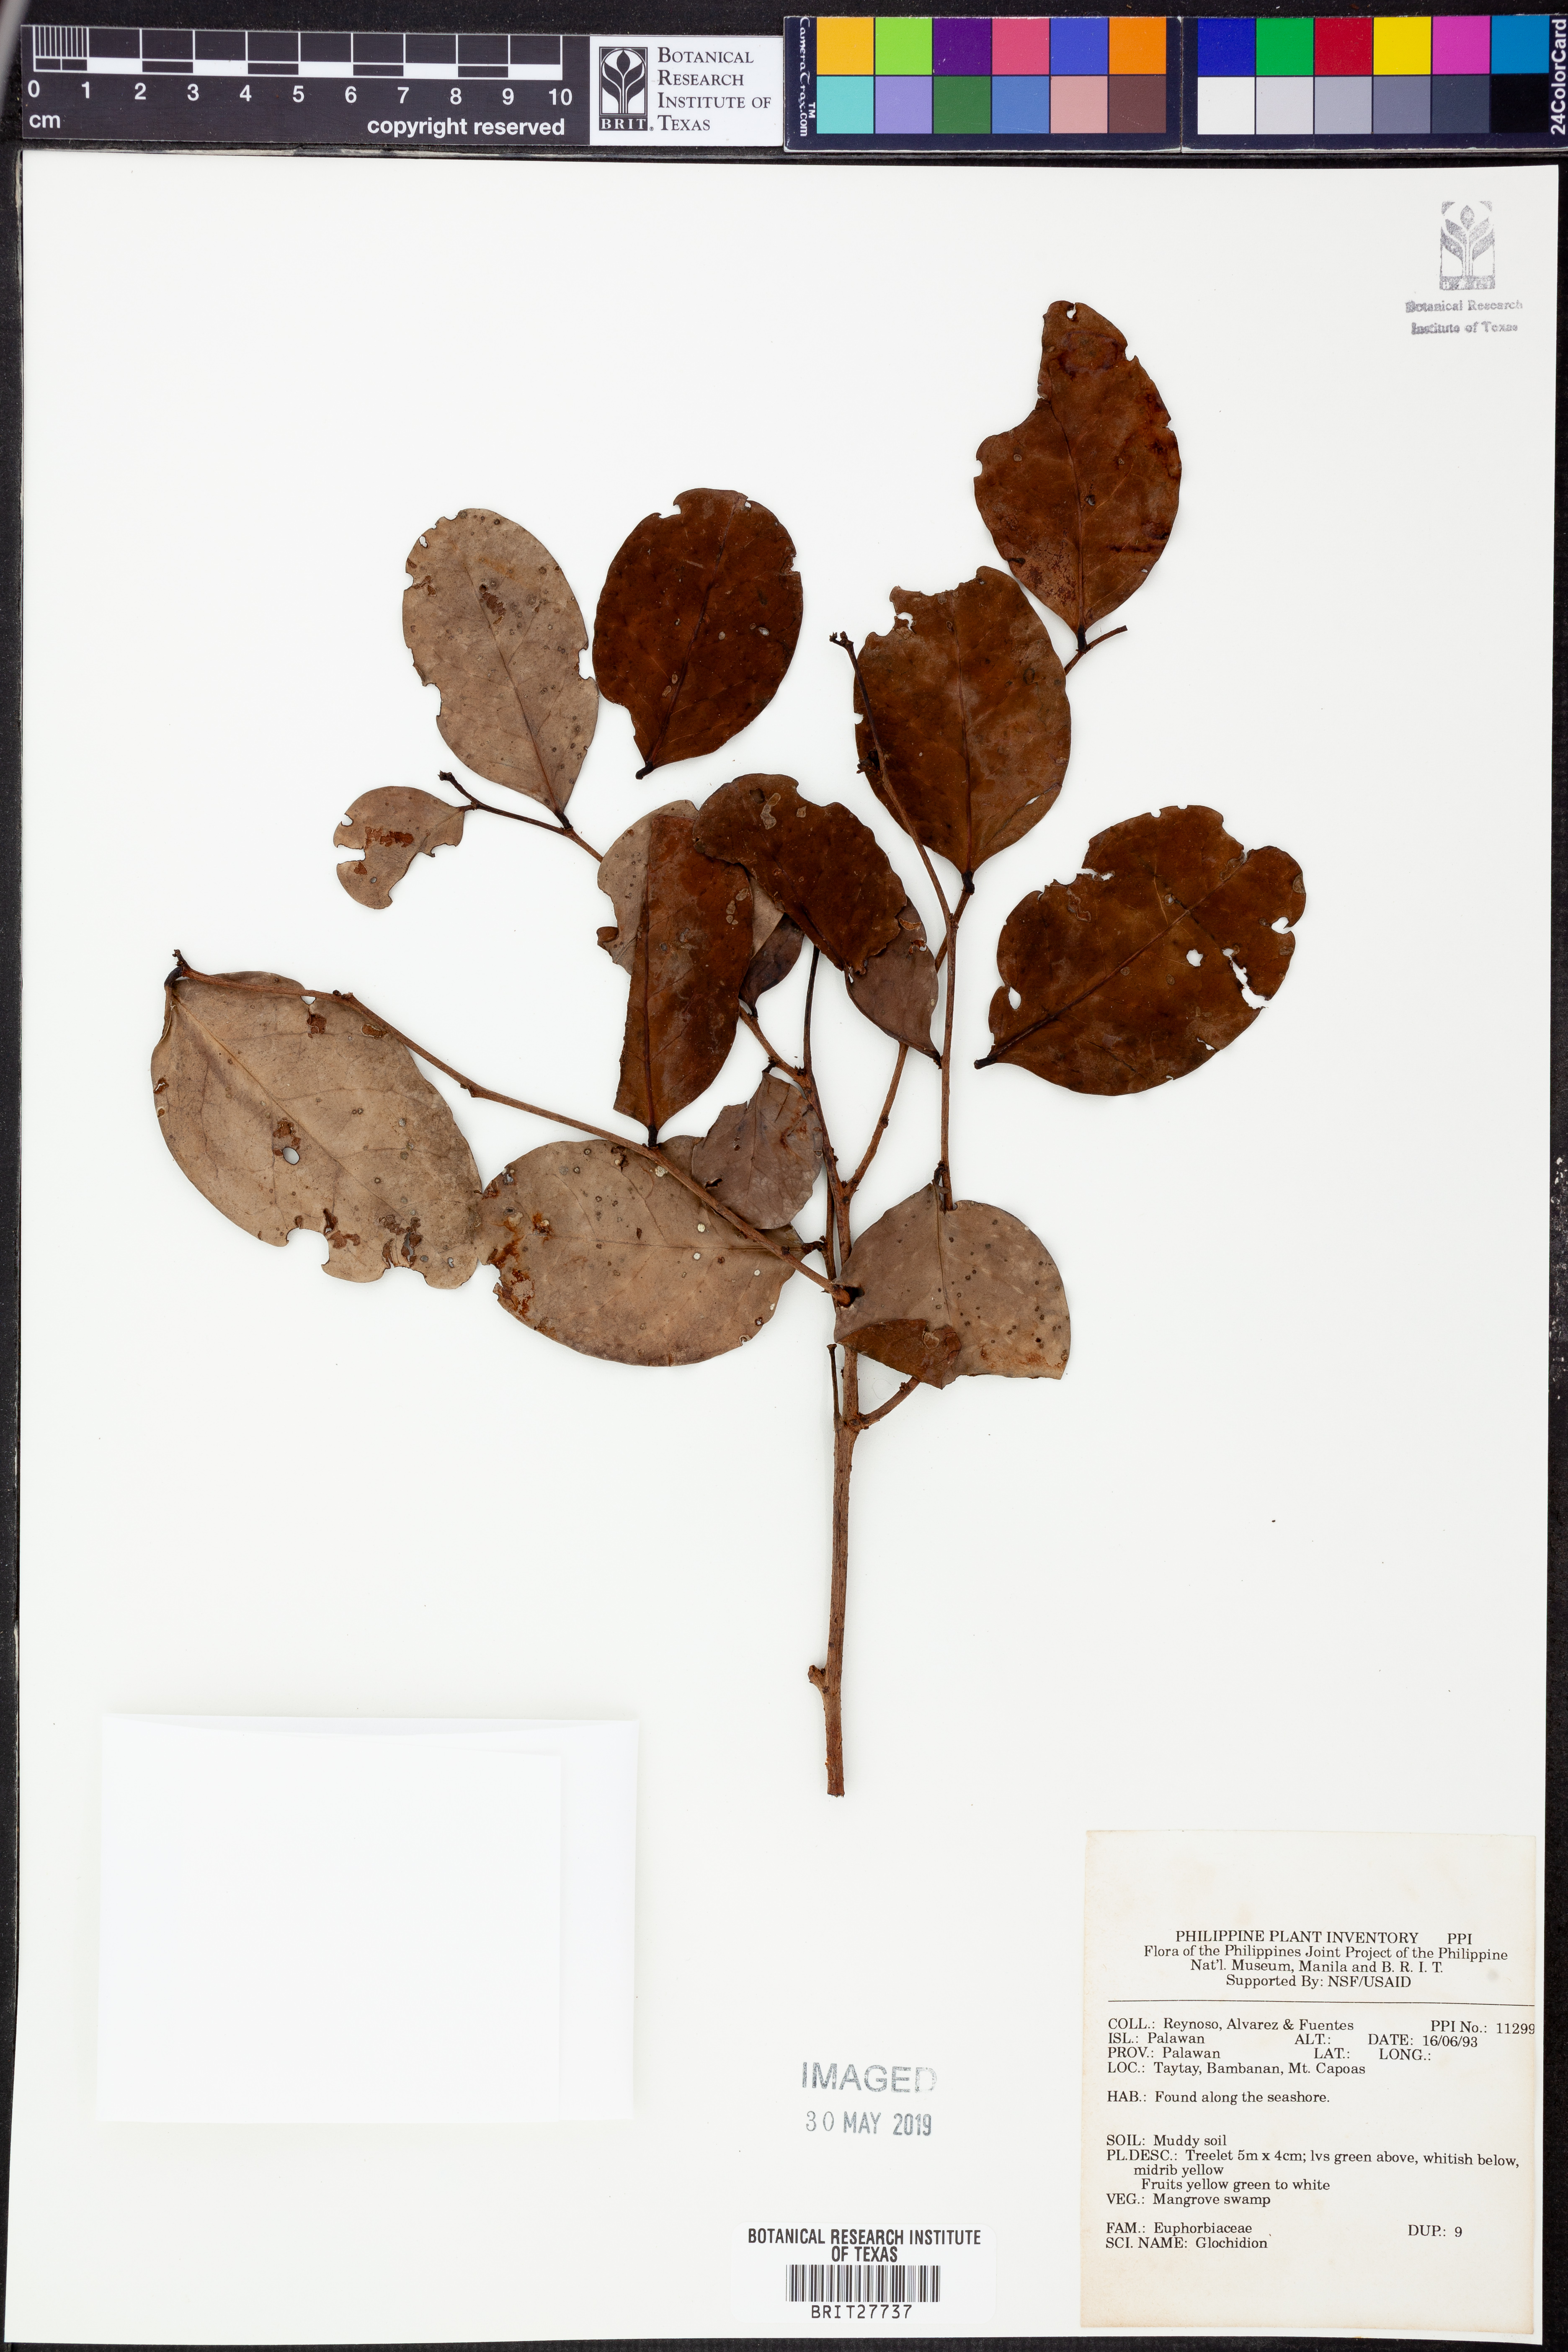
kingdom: Plantae
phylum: Tracheophyta
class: Magnoliopsida
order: Malpighiales
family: Phyllanthaceae
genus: Glochidion
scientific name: Glochidion
